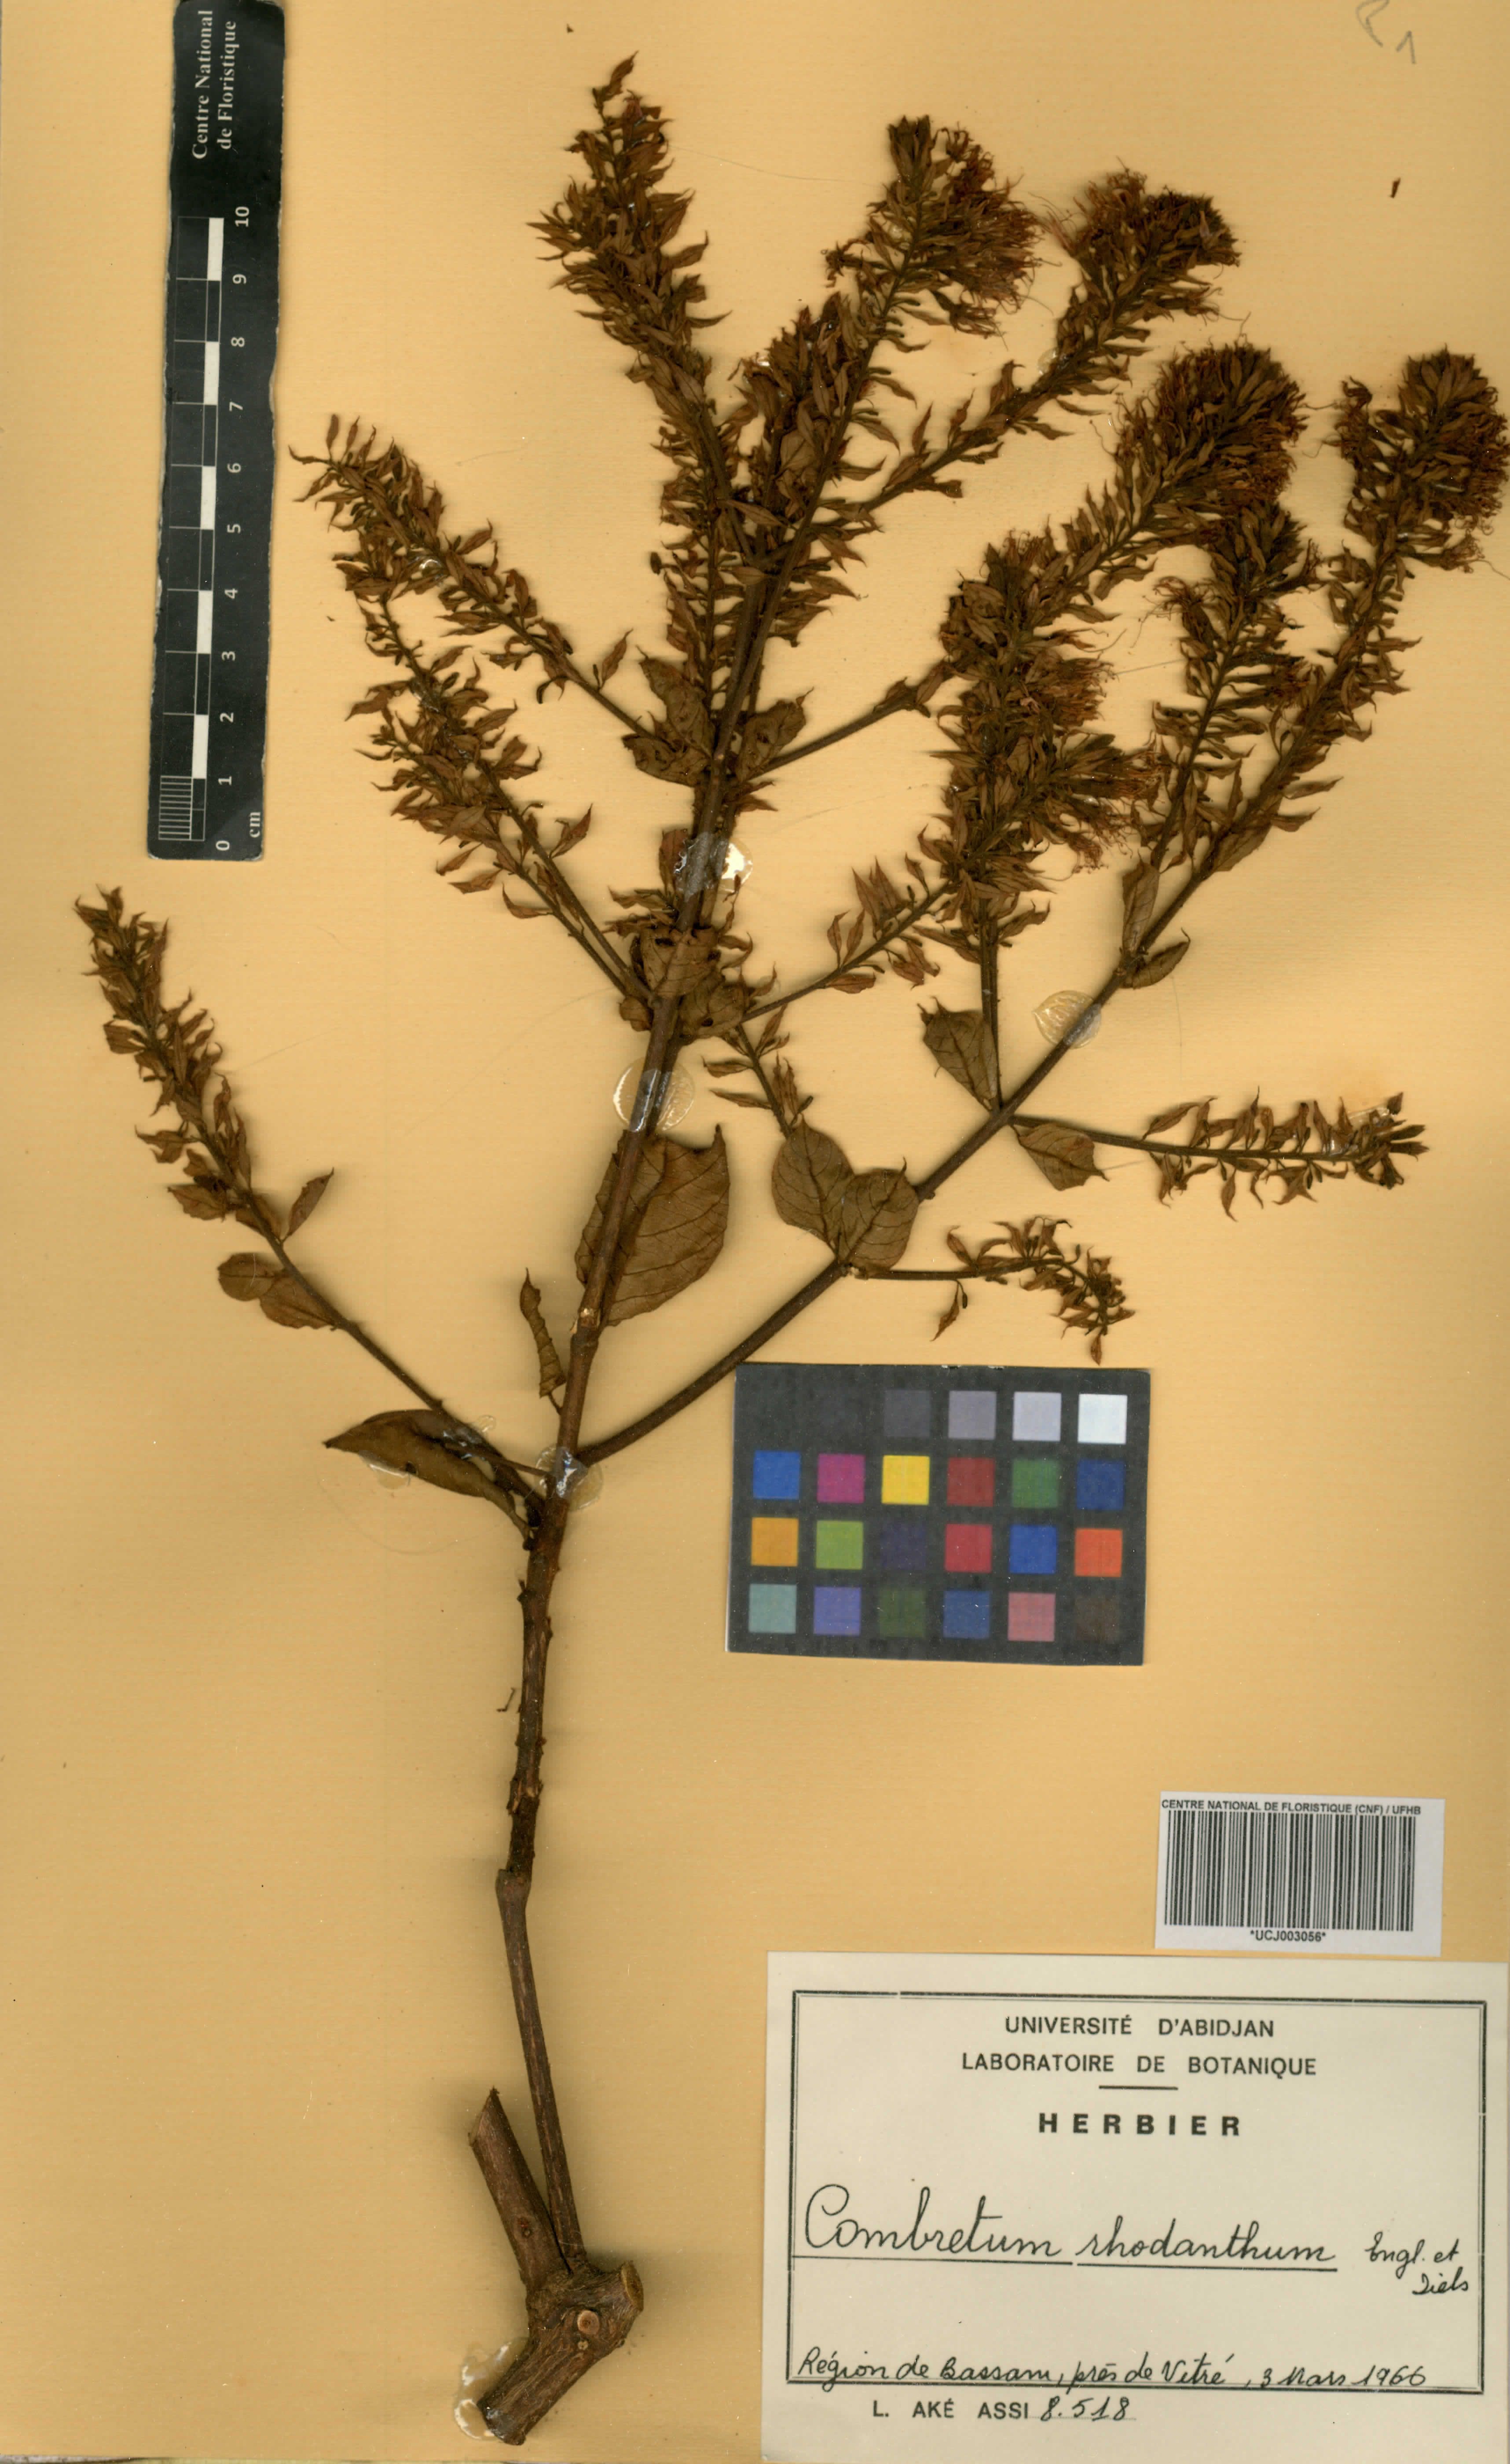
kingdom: Plantae
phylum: Tracheophyta
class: Magnoliopsida
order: Myrtales
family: Combretaceae
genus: Combretum
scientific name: Combretum comosum
